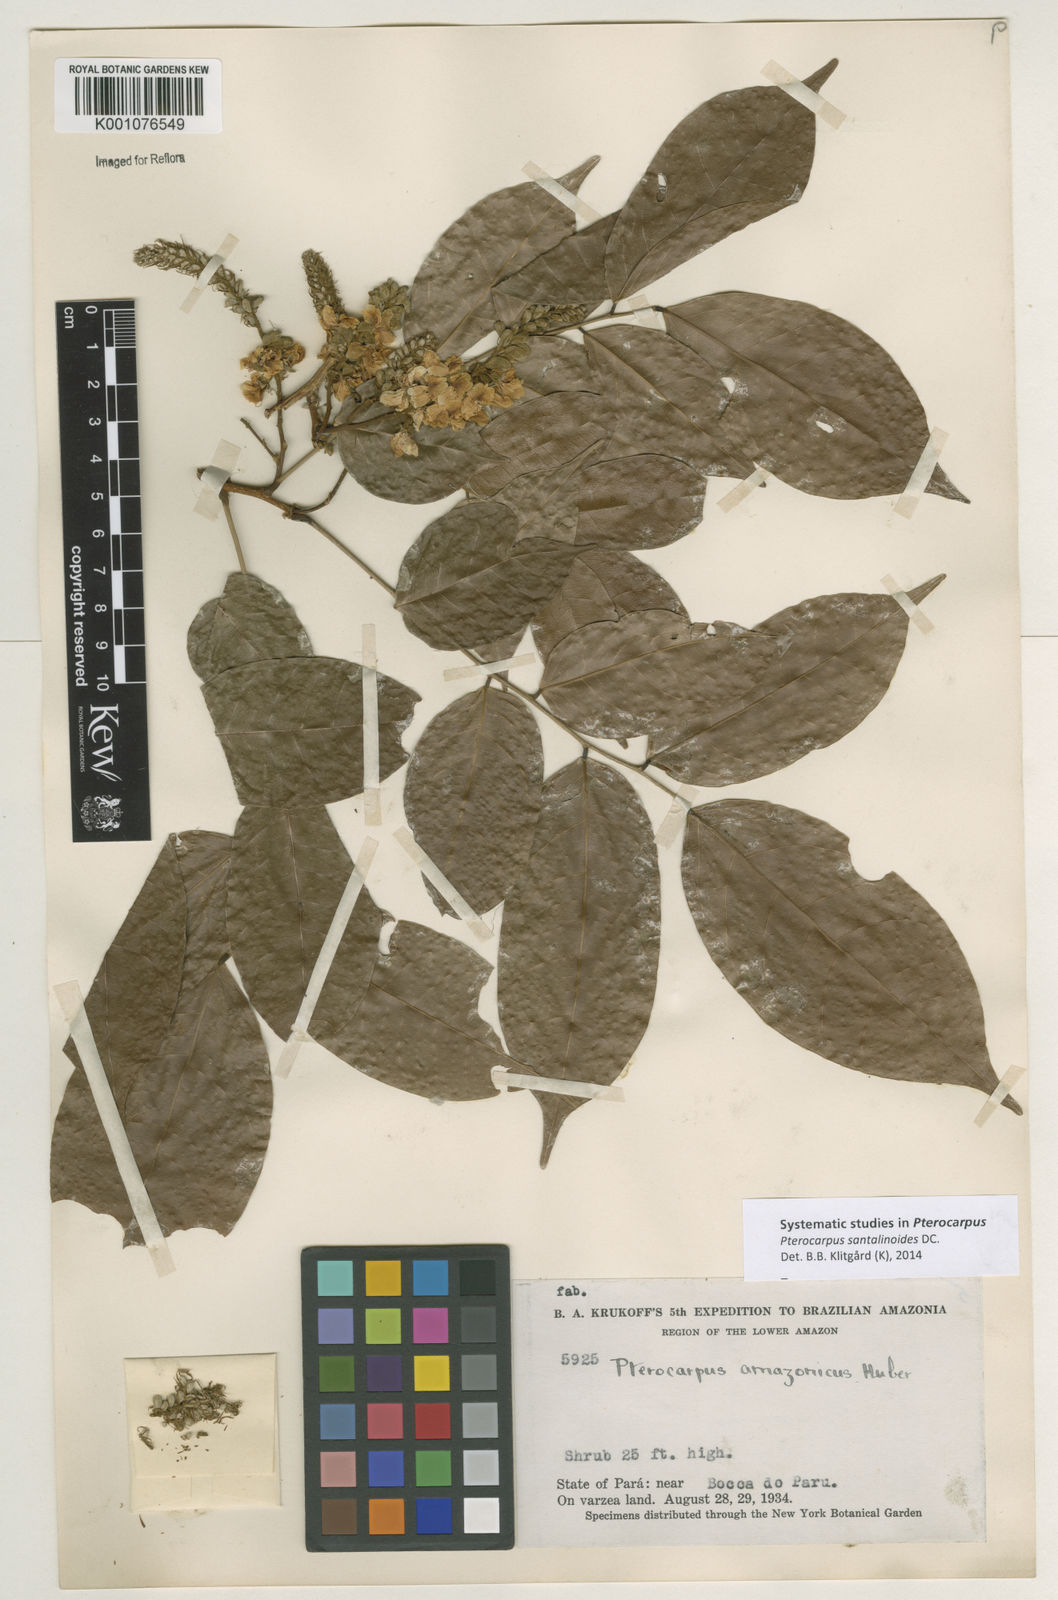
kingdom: Plantae
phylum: Tracheophyta
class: Magnoliopsida
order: Fabales
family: Fabaceae
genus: Pterocarpus
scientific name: Pterocarpus santalinoides
